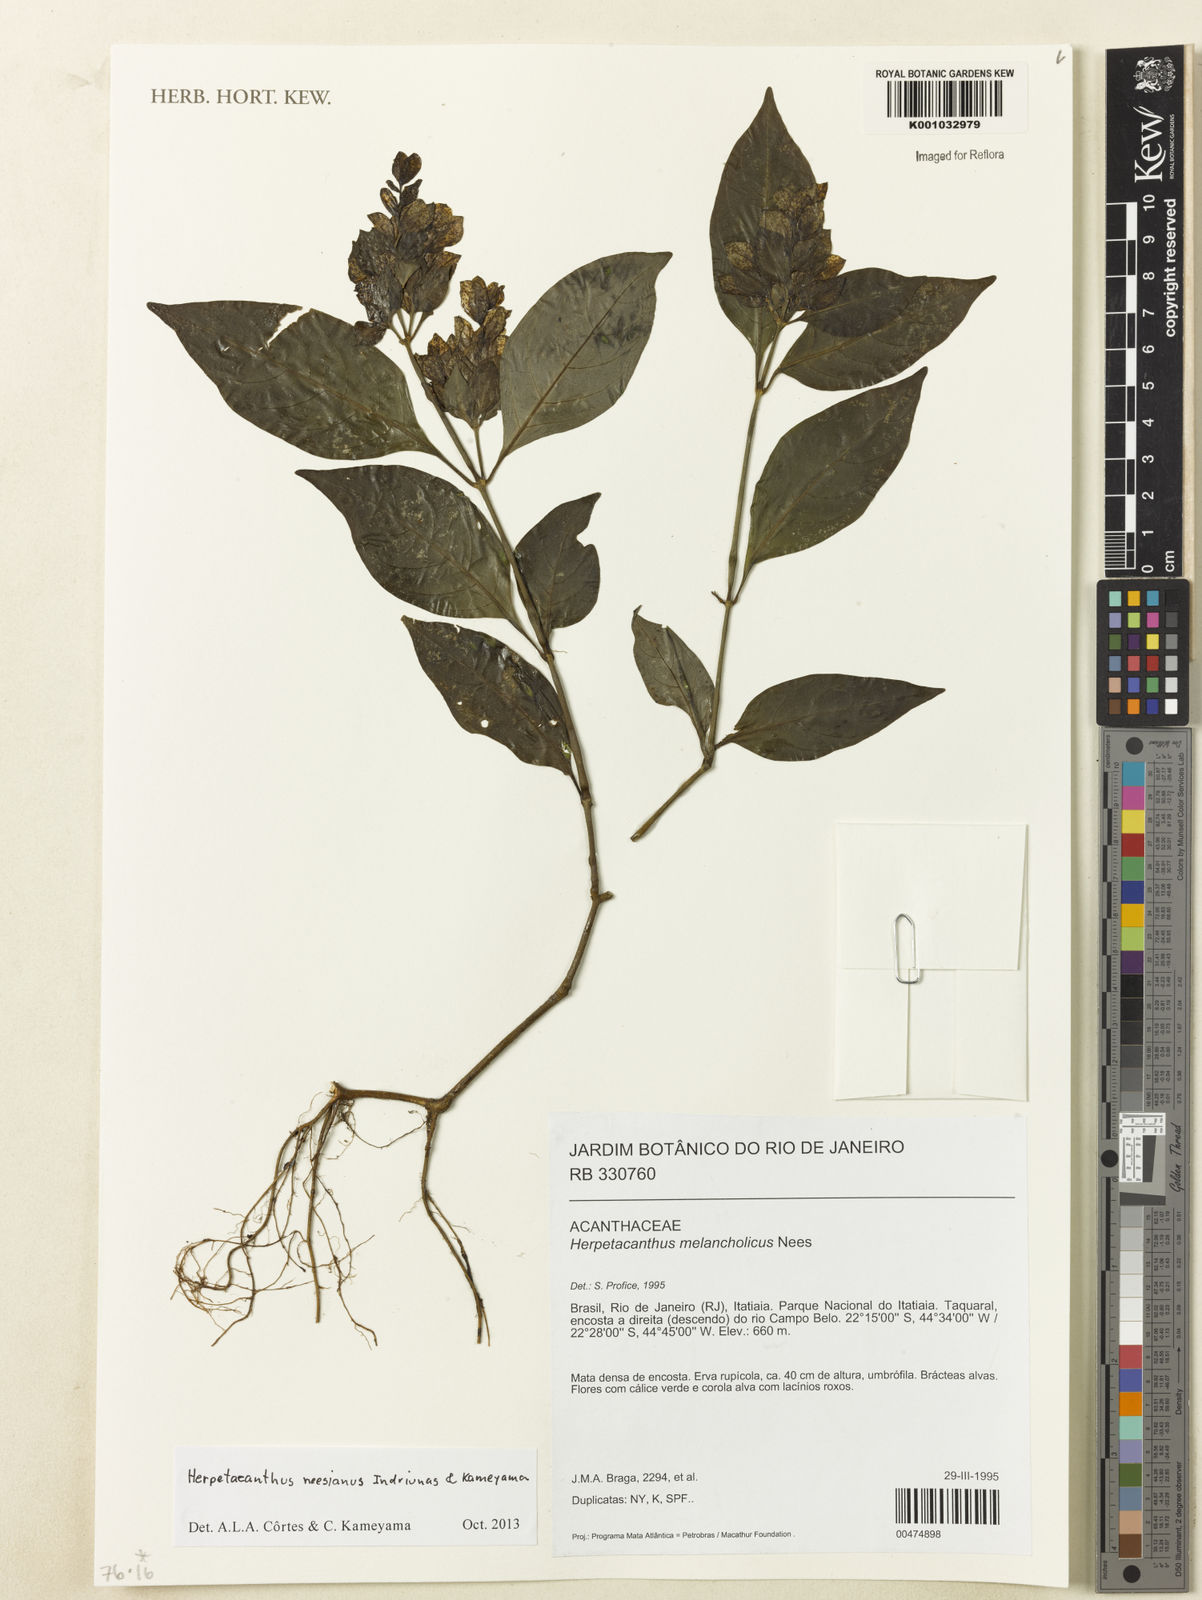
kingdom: Plantae
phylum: Tracheophyta
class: Magnoliopsida
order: Lamiales
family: Acanthaceae
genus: Herpetacanthus
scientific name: Herpetacanthus neesianus
